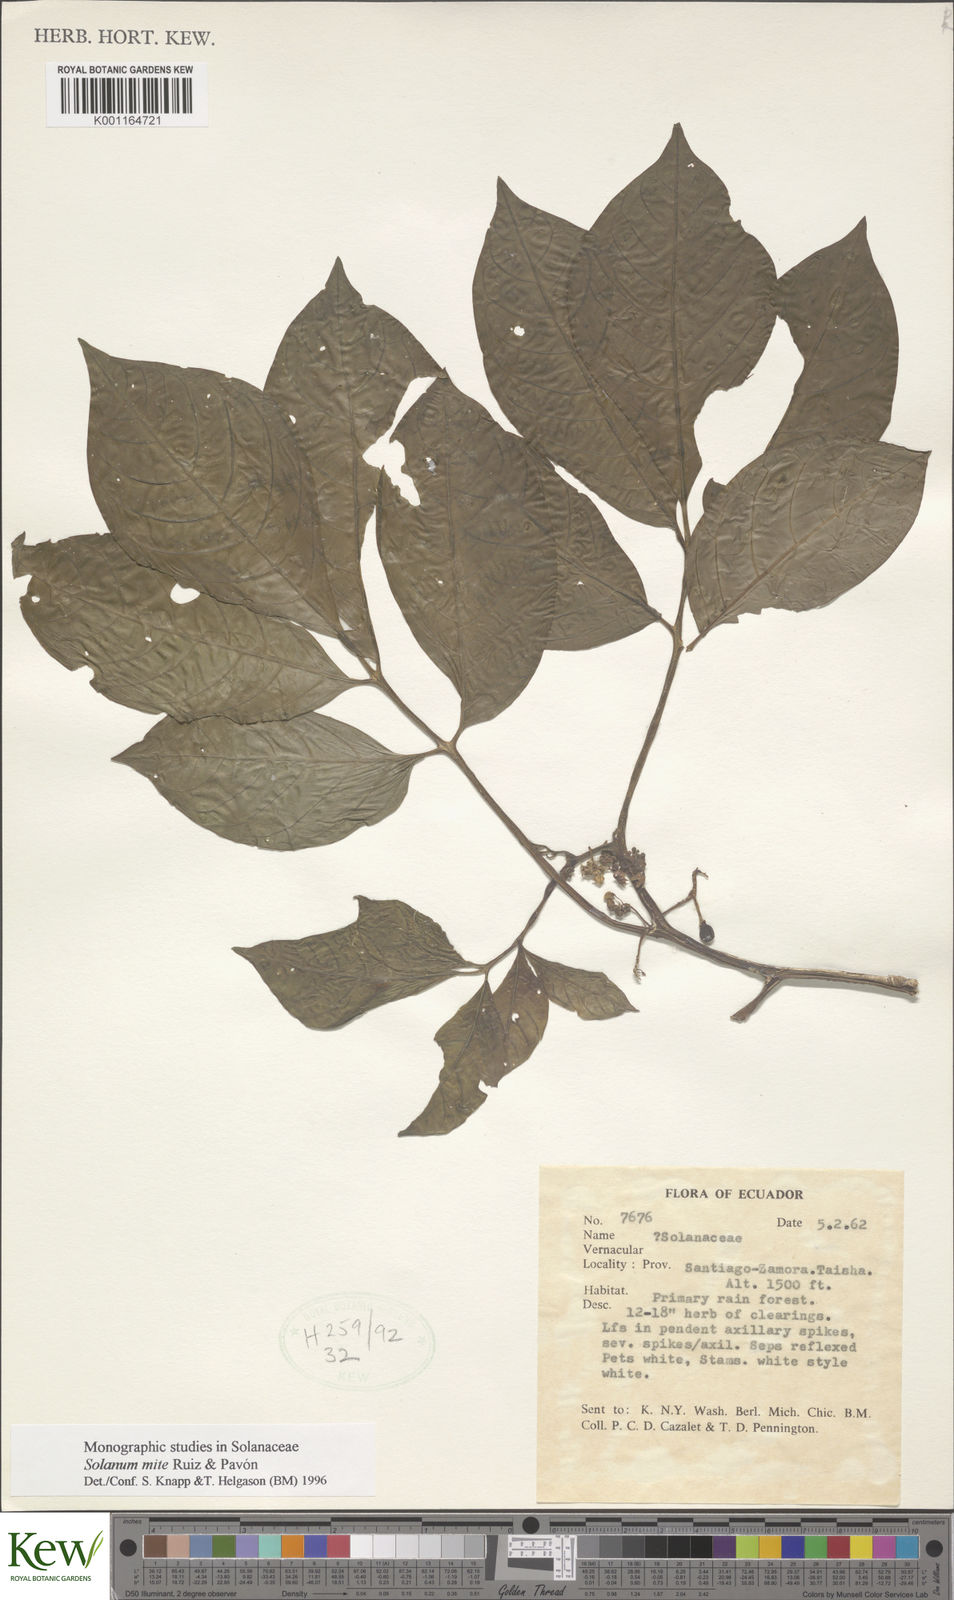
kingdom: Plantae
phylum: Tracheophyta
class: Magnoliopsida
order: Solanales
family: Solanaceae
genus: Solanum
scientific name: Solanum mite
